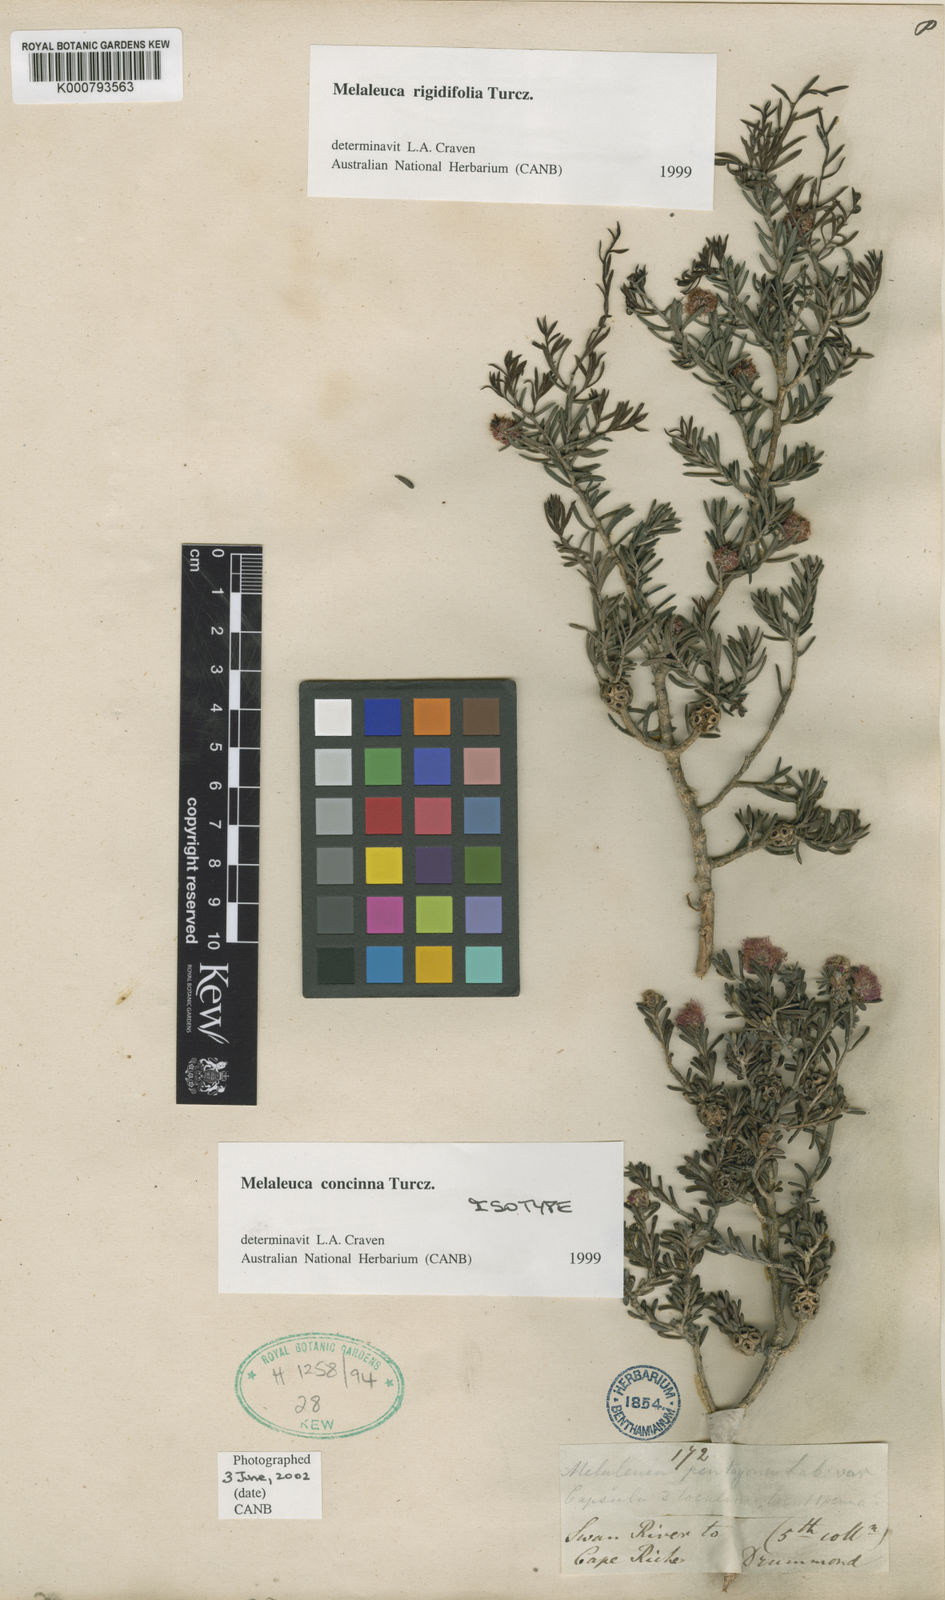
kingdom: Plantae
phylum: Tracheophyta
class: Magnoliopsida
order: Myrtales
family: Myrtaceae
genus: Melaleuca
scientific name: Melaleuca concinna
